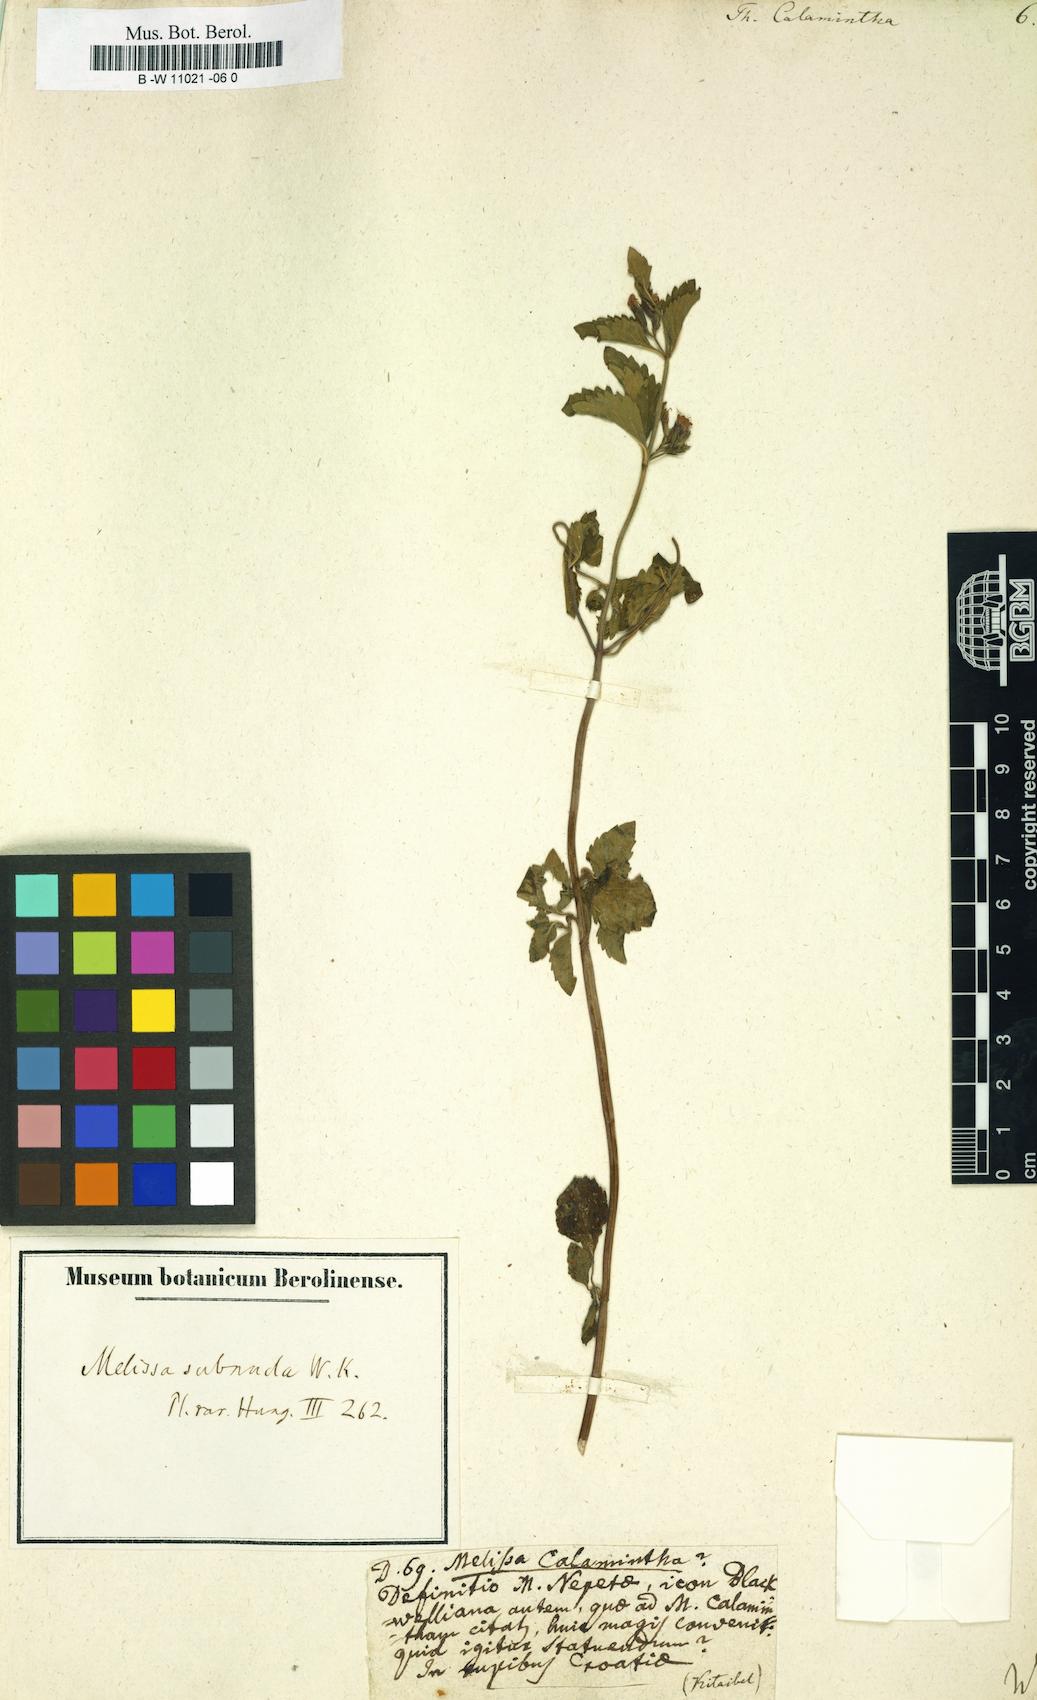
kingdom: Plantae
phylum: Tracheophyta
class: Magnoliopsida
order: Lamiales
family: Lamiaceae
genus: Clinopodium
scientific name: Clinopodium nepeta
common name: Lesser calamint
